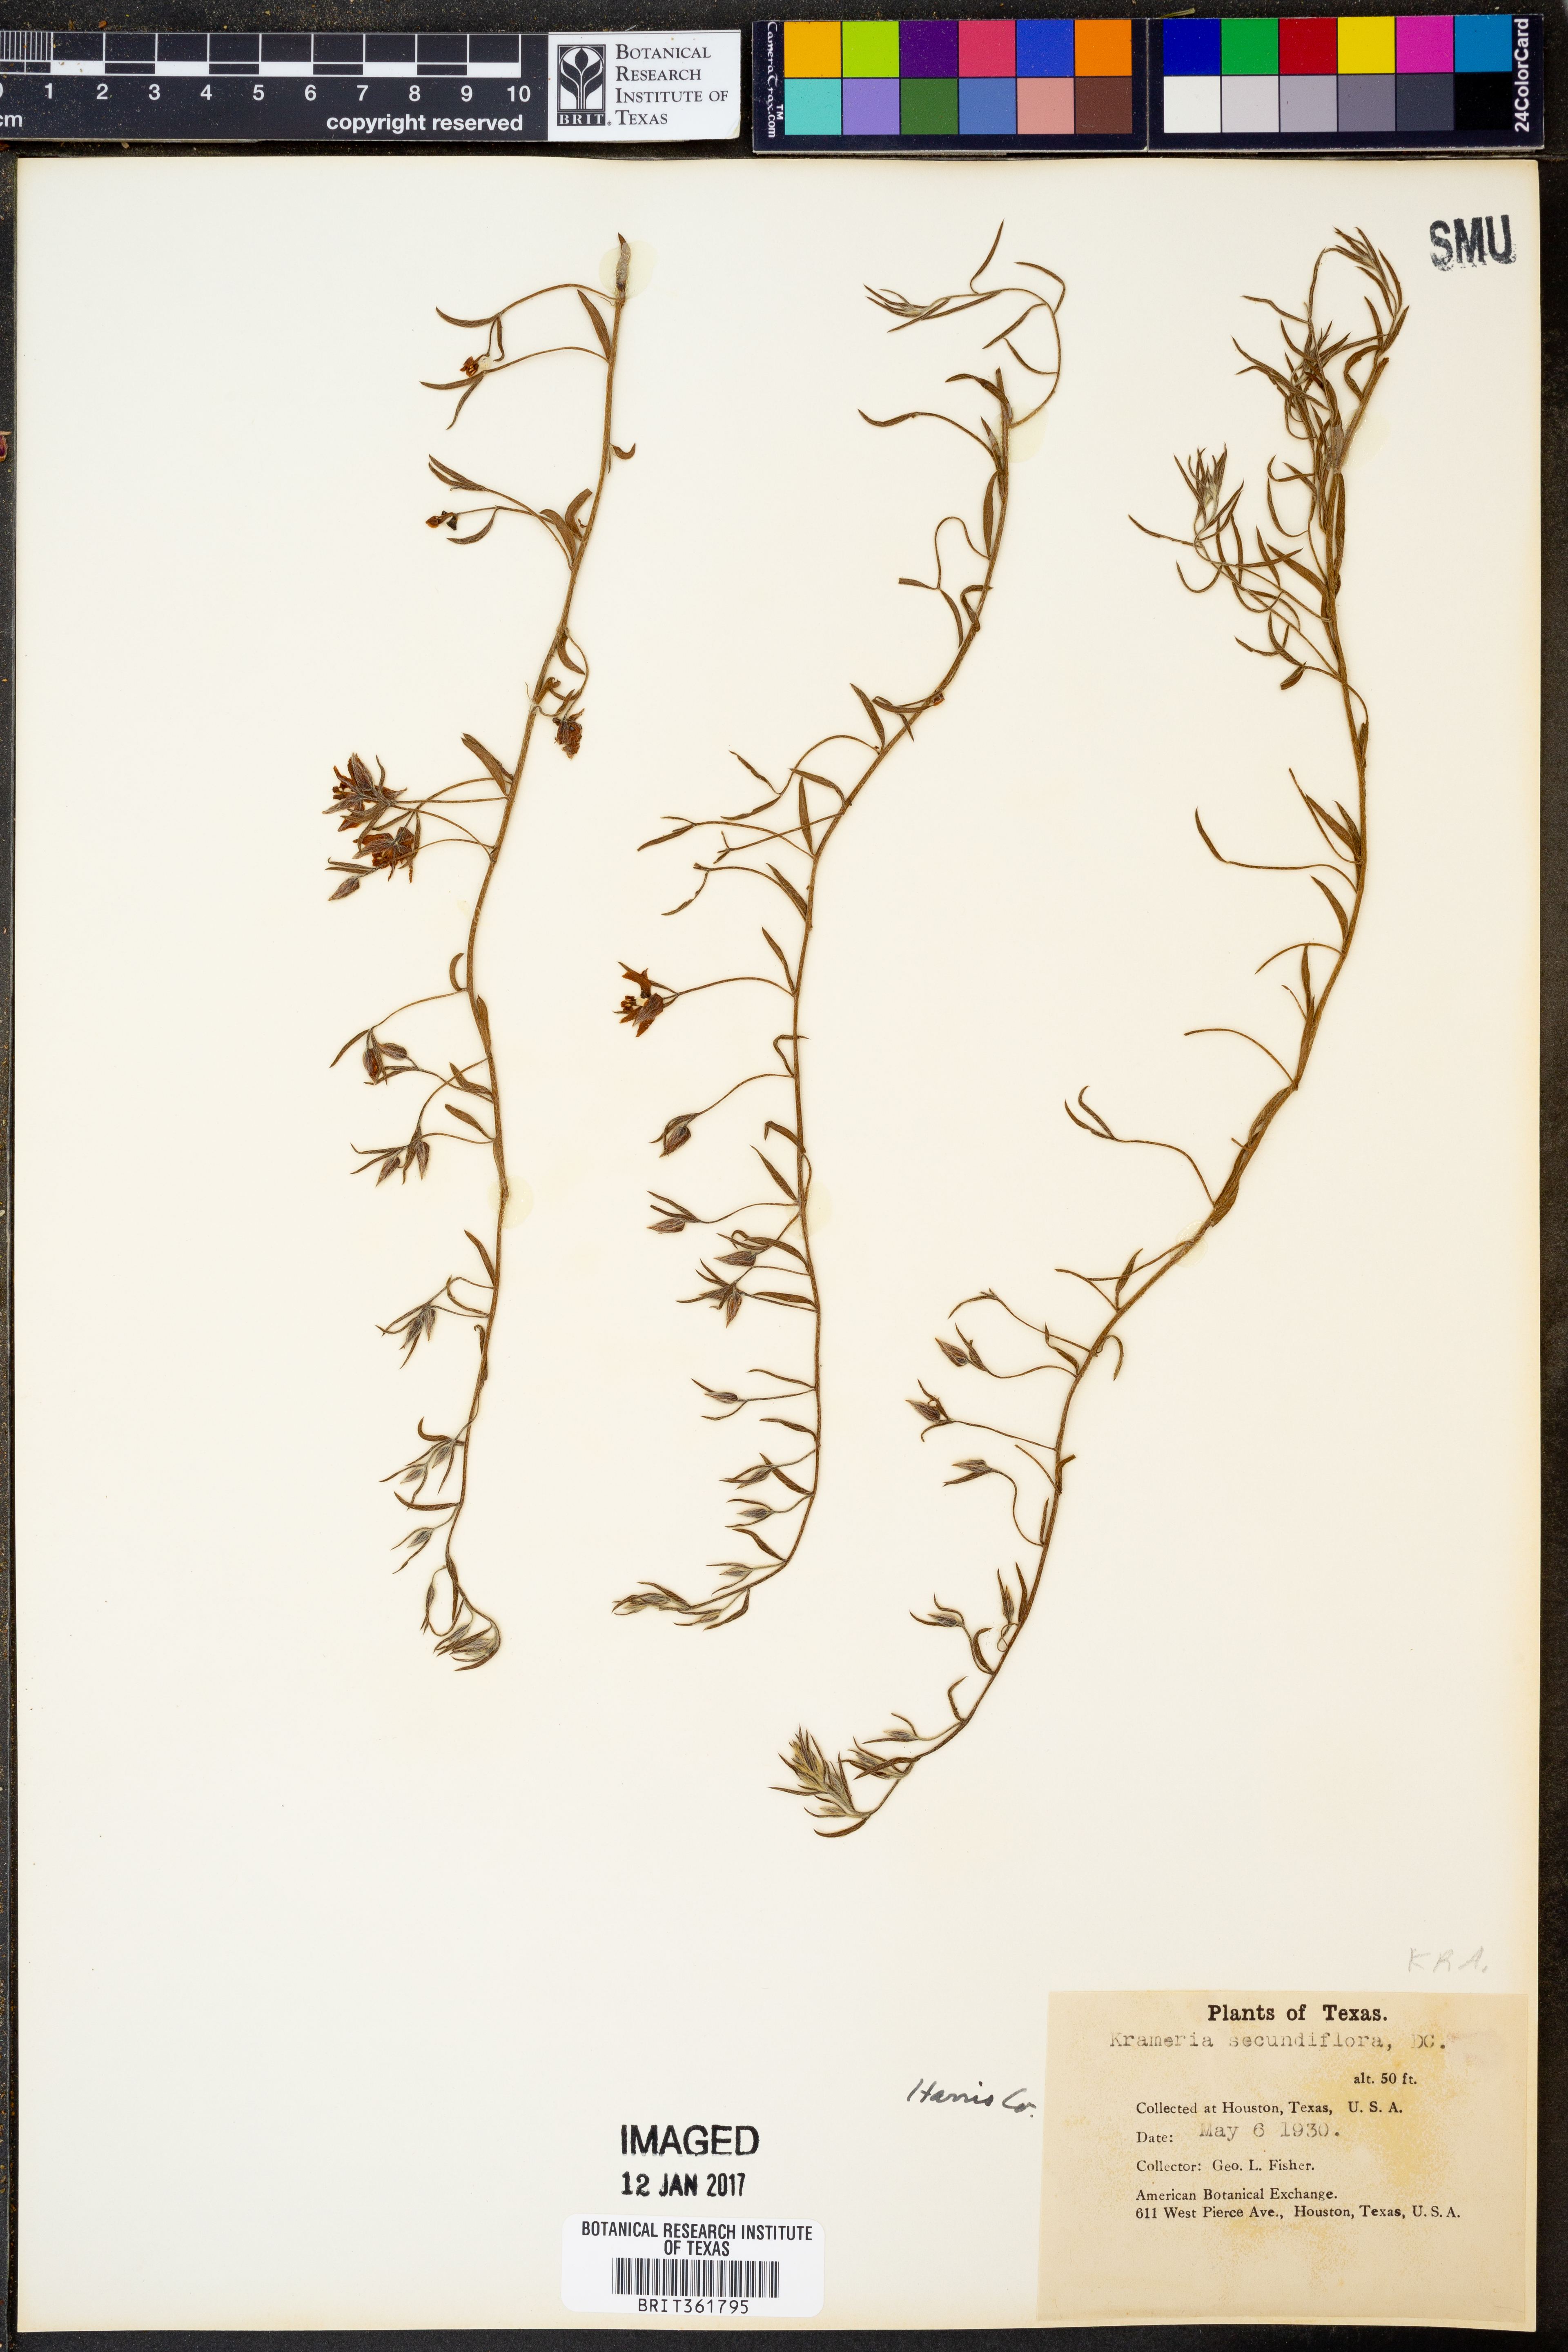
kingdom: Plantae
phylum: Tracheophyta
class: Magnoliopsida
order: Zygophyllales
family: Krameriaceae
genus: Krameria
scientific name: Krameria secundiflora
